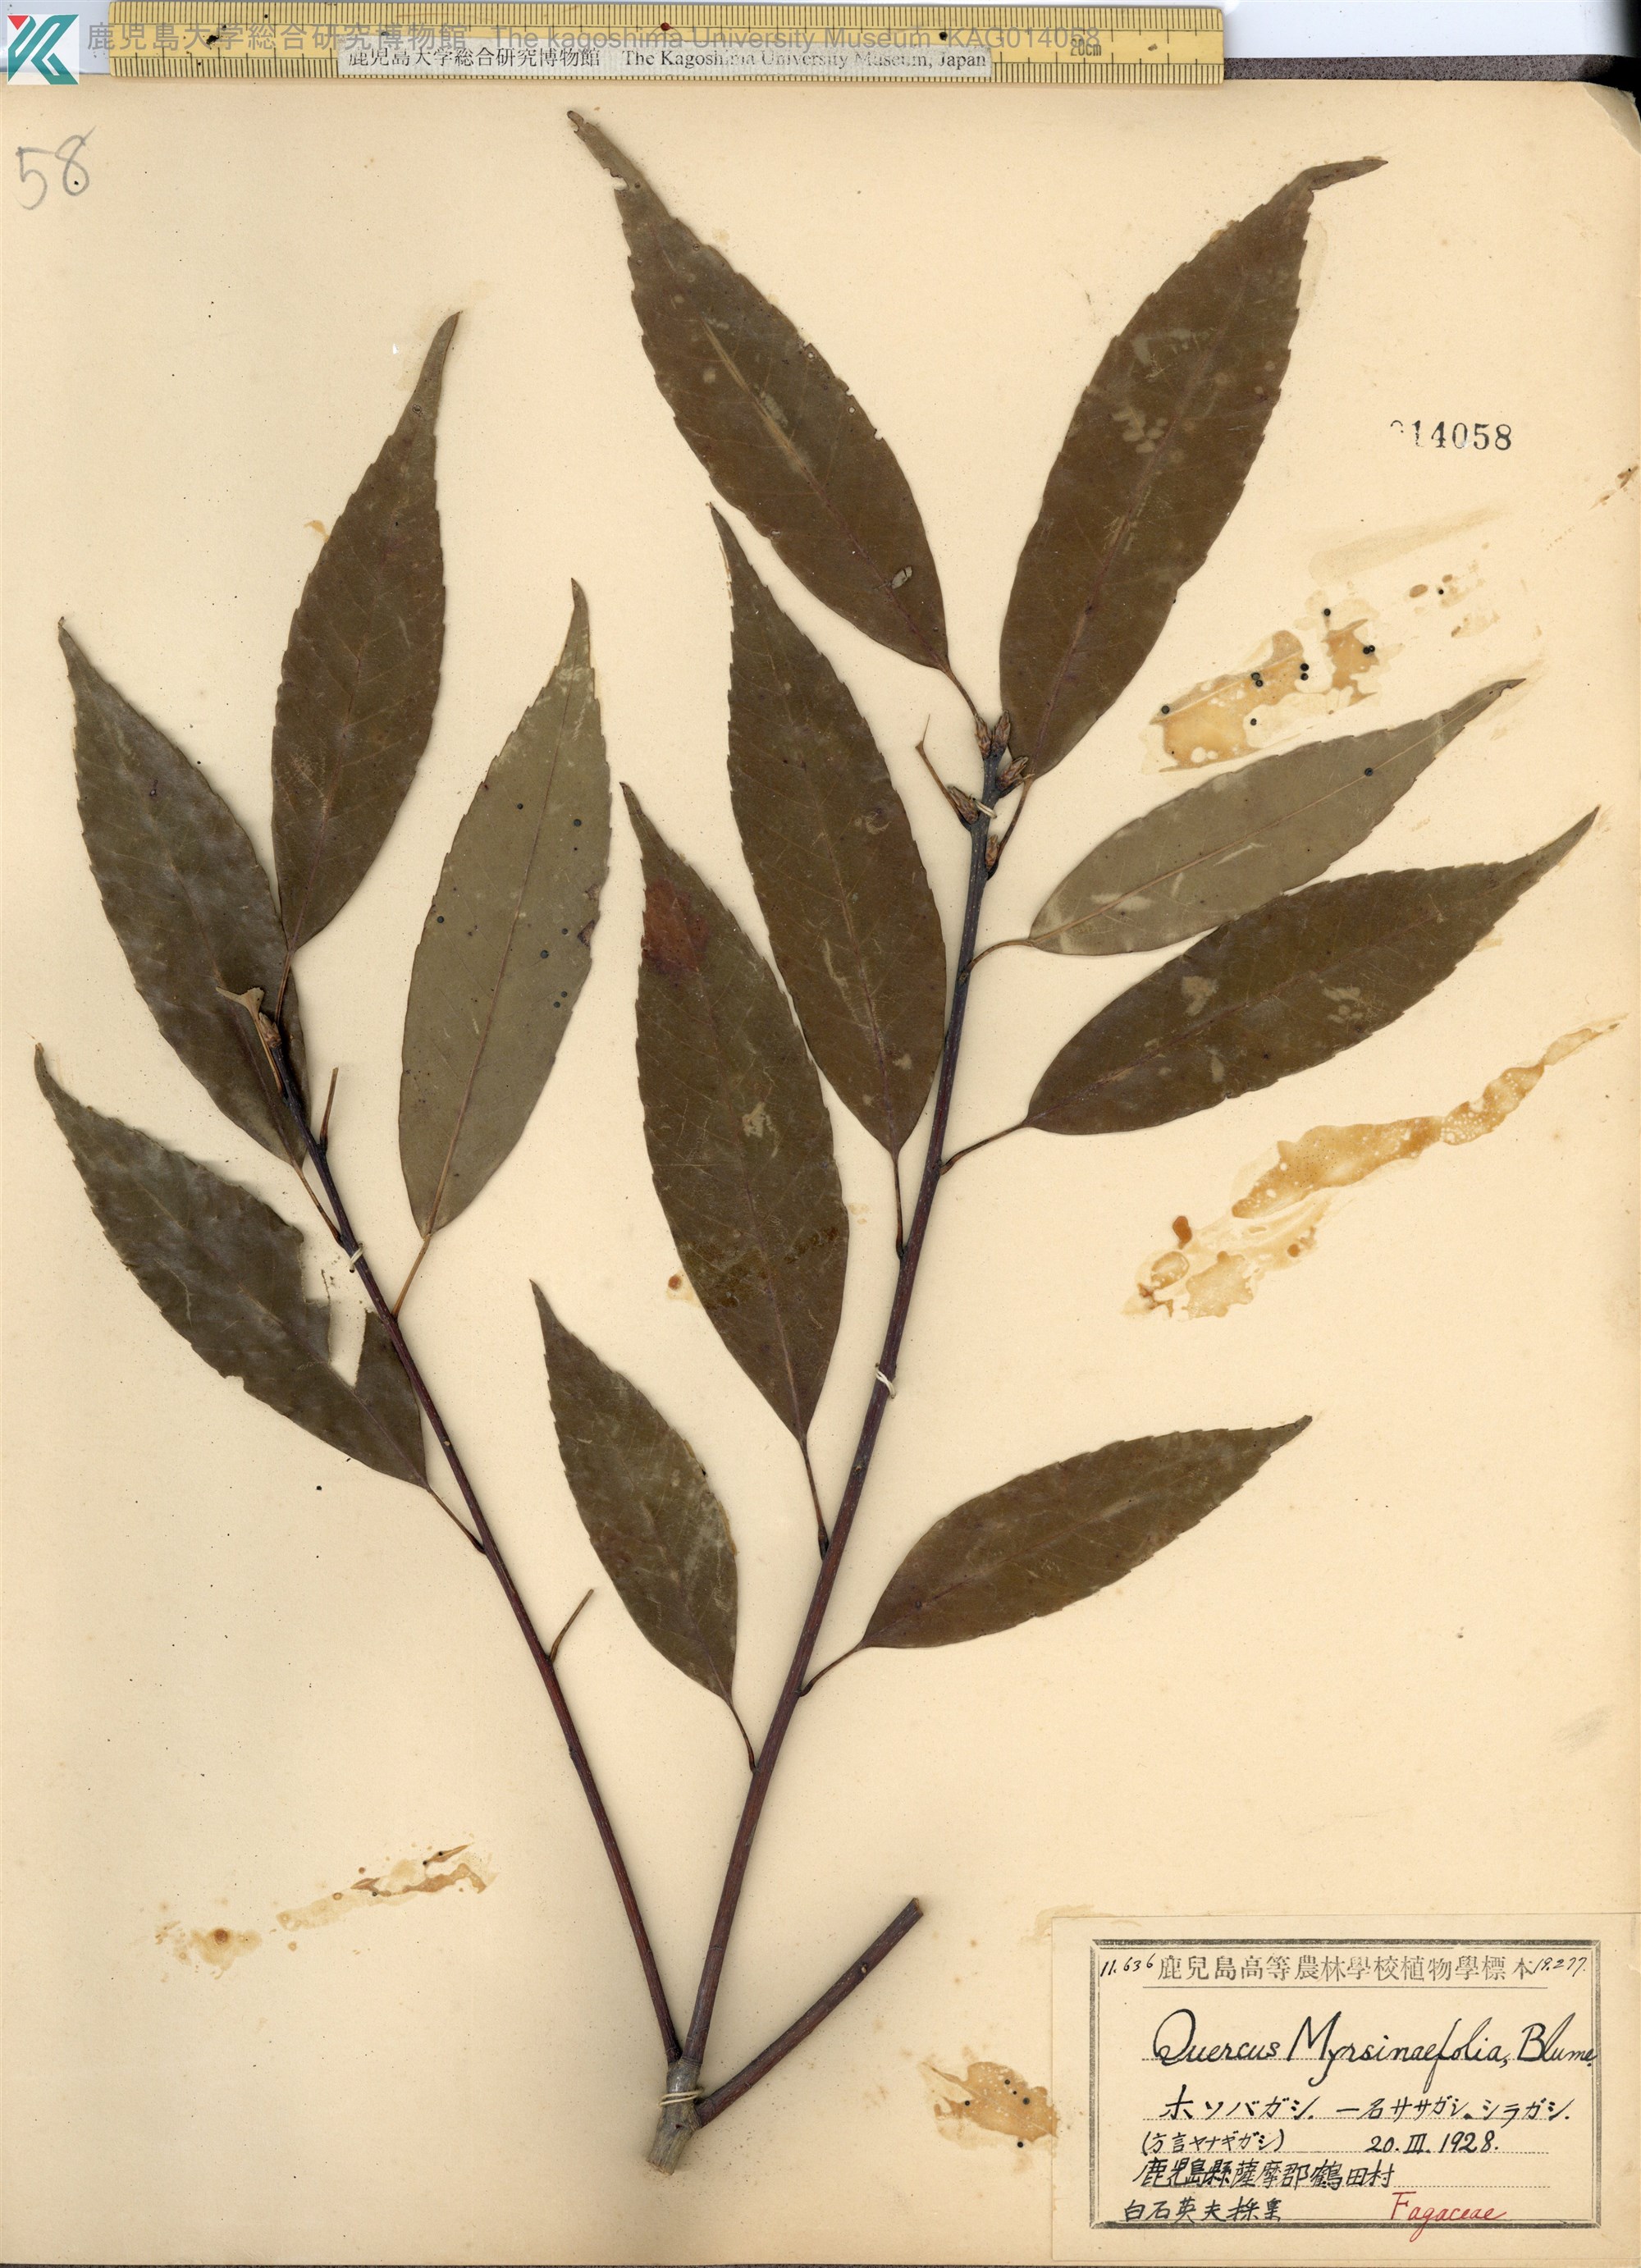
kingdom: Plantae
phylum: Tracheophyta
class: Magnoliopsida
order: Fagales
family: Fagaceae
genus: Quercus
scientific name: Quercus myrsinaefolia
